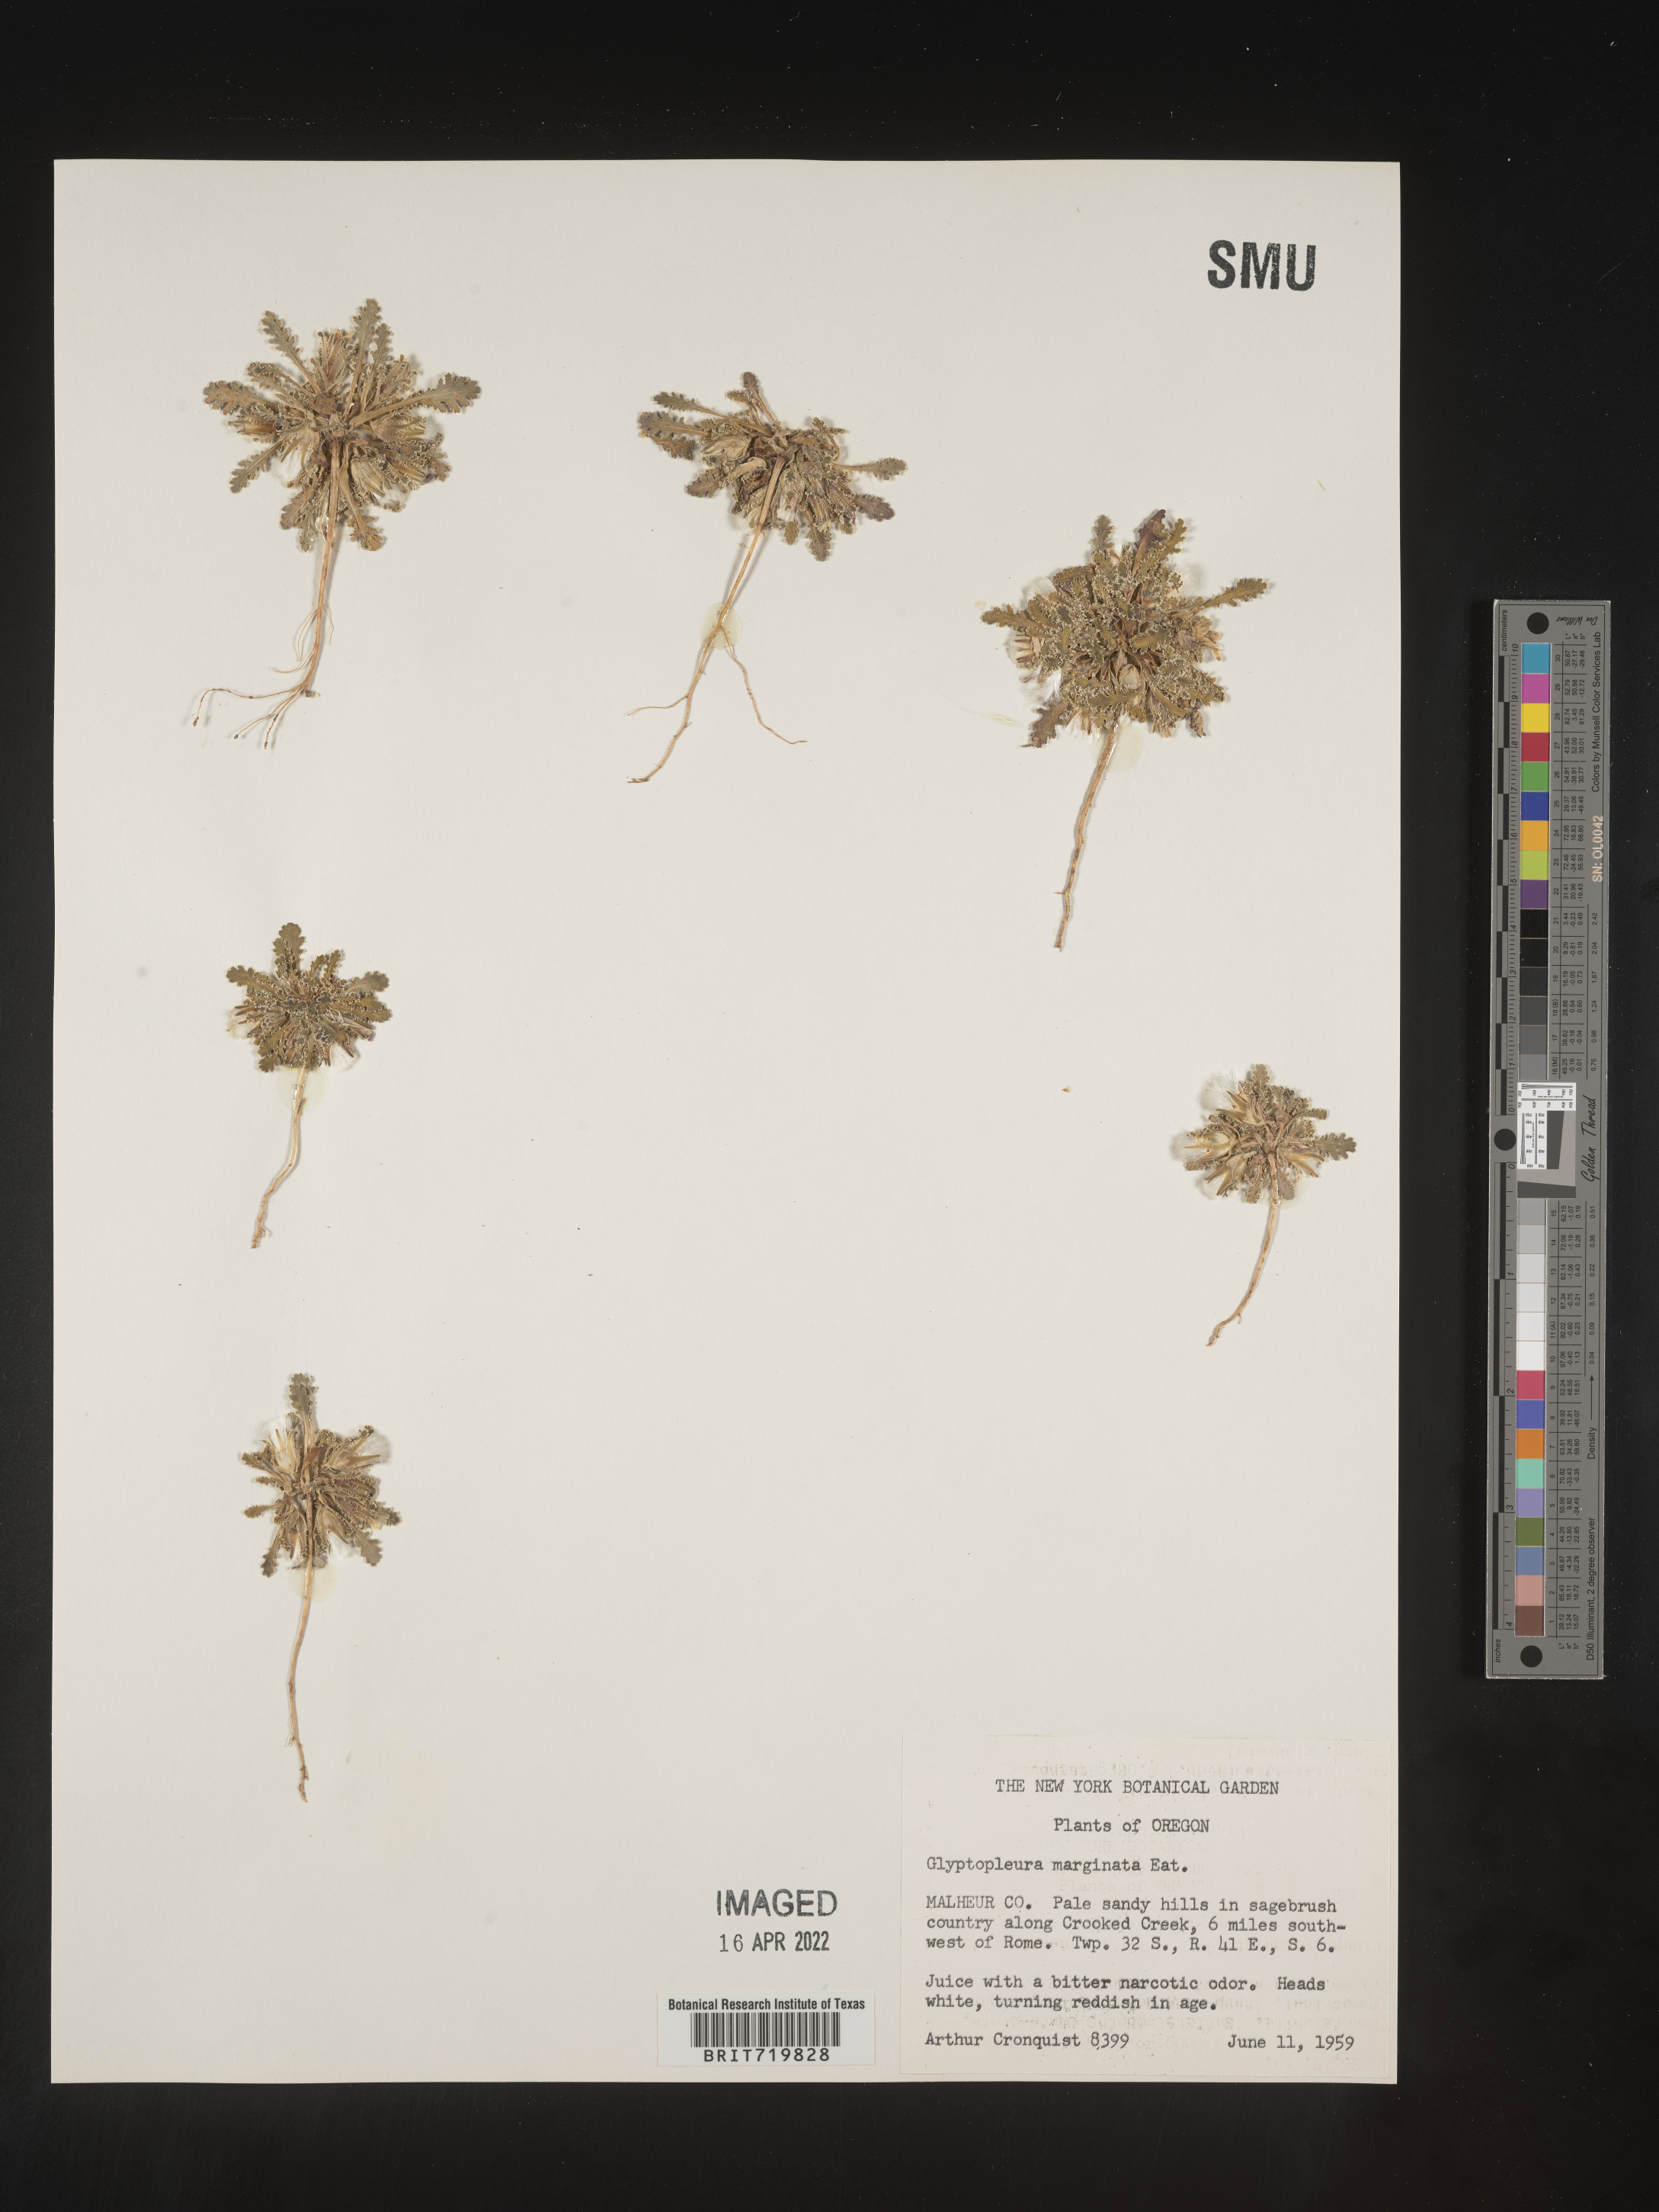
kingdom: Plantae
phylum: Tracheophyta
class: Magnoliopsida
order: Asterales
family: Asteraceae
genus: Glyptopleura
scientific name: Glyptopleura
